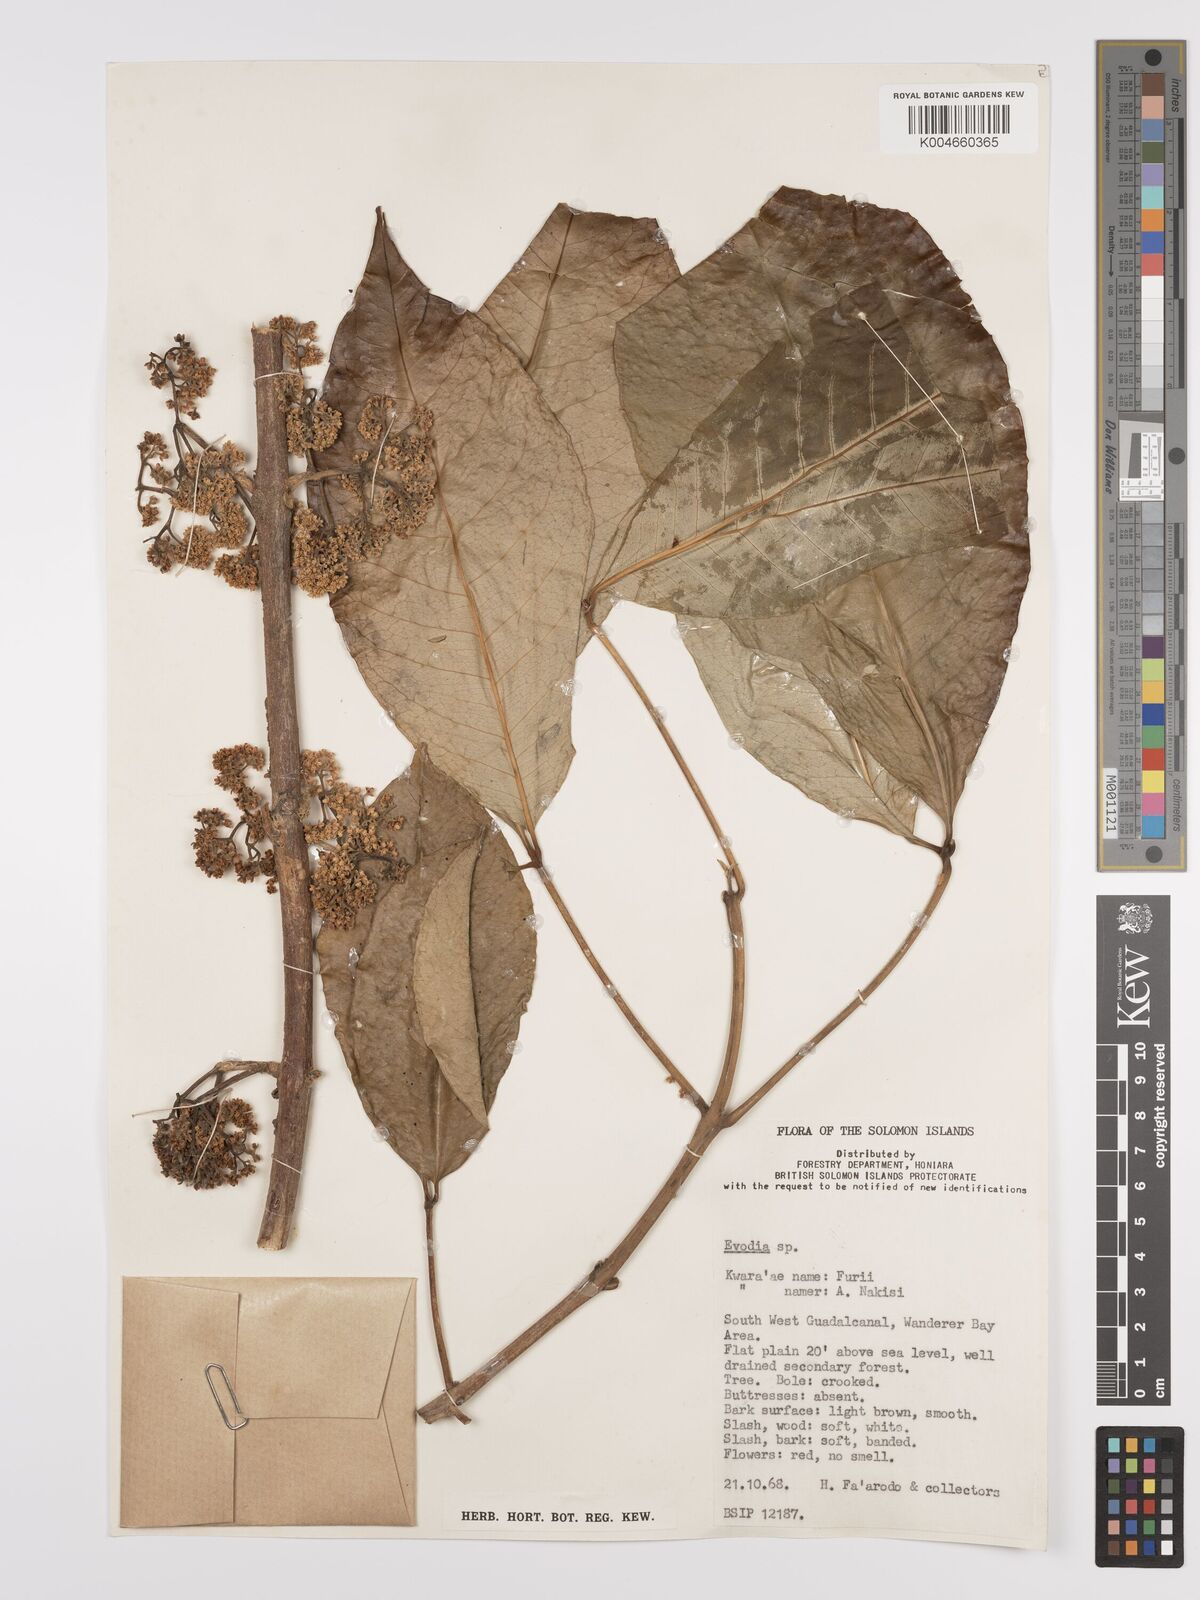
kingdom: Plantae
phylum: Tracheophyta
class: Magnoliopsida
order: Sapindales
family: Rutaceae
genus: Euodia
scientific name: Euodia
